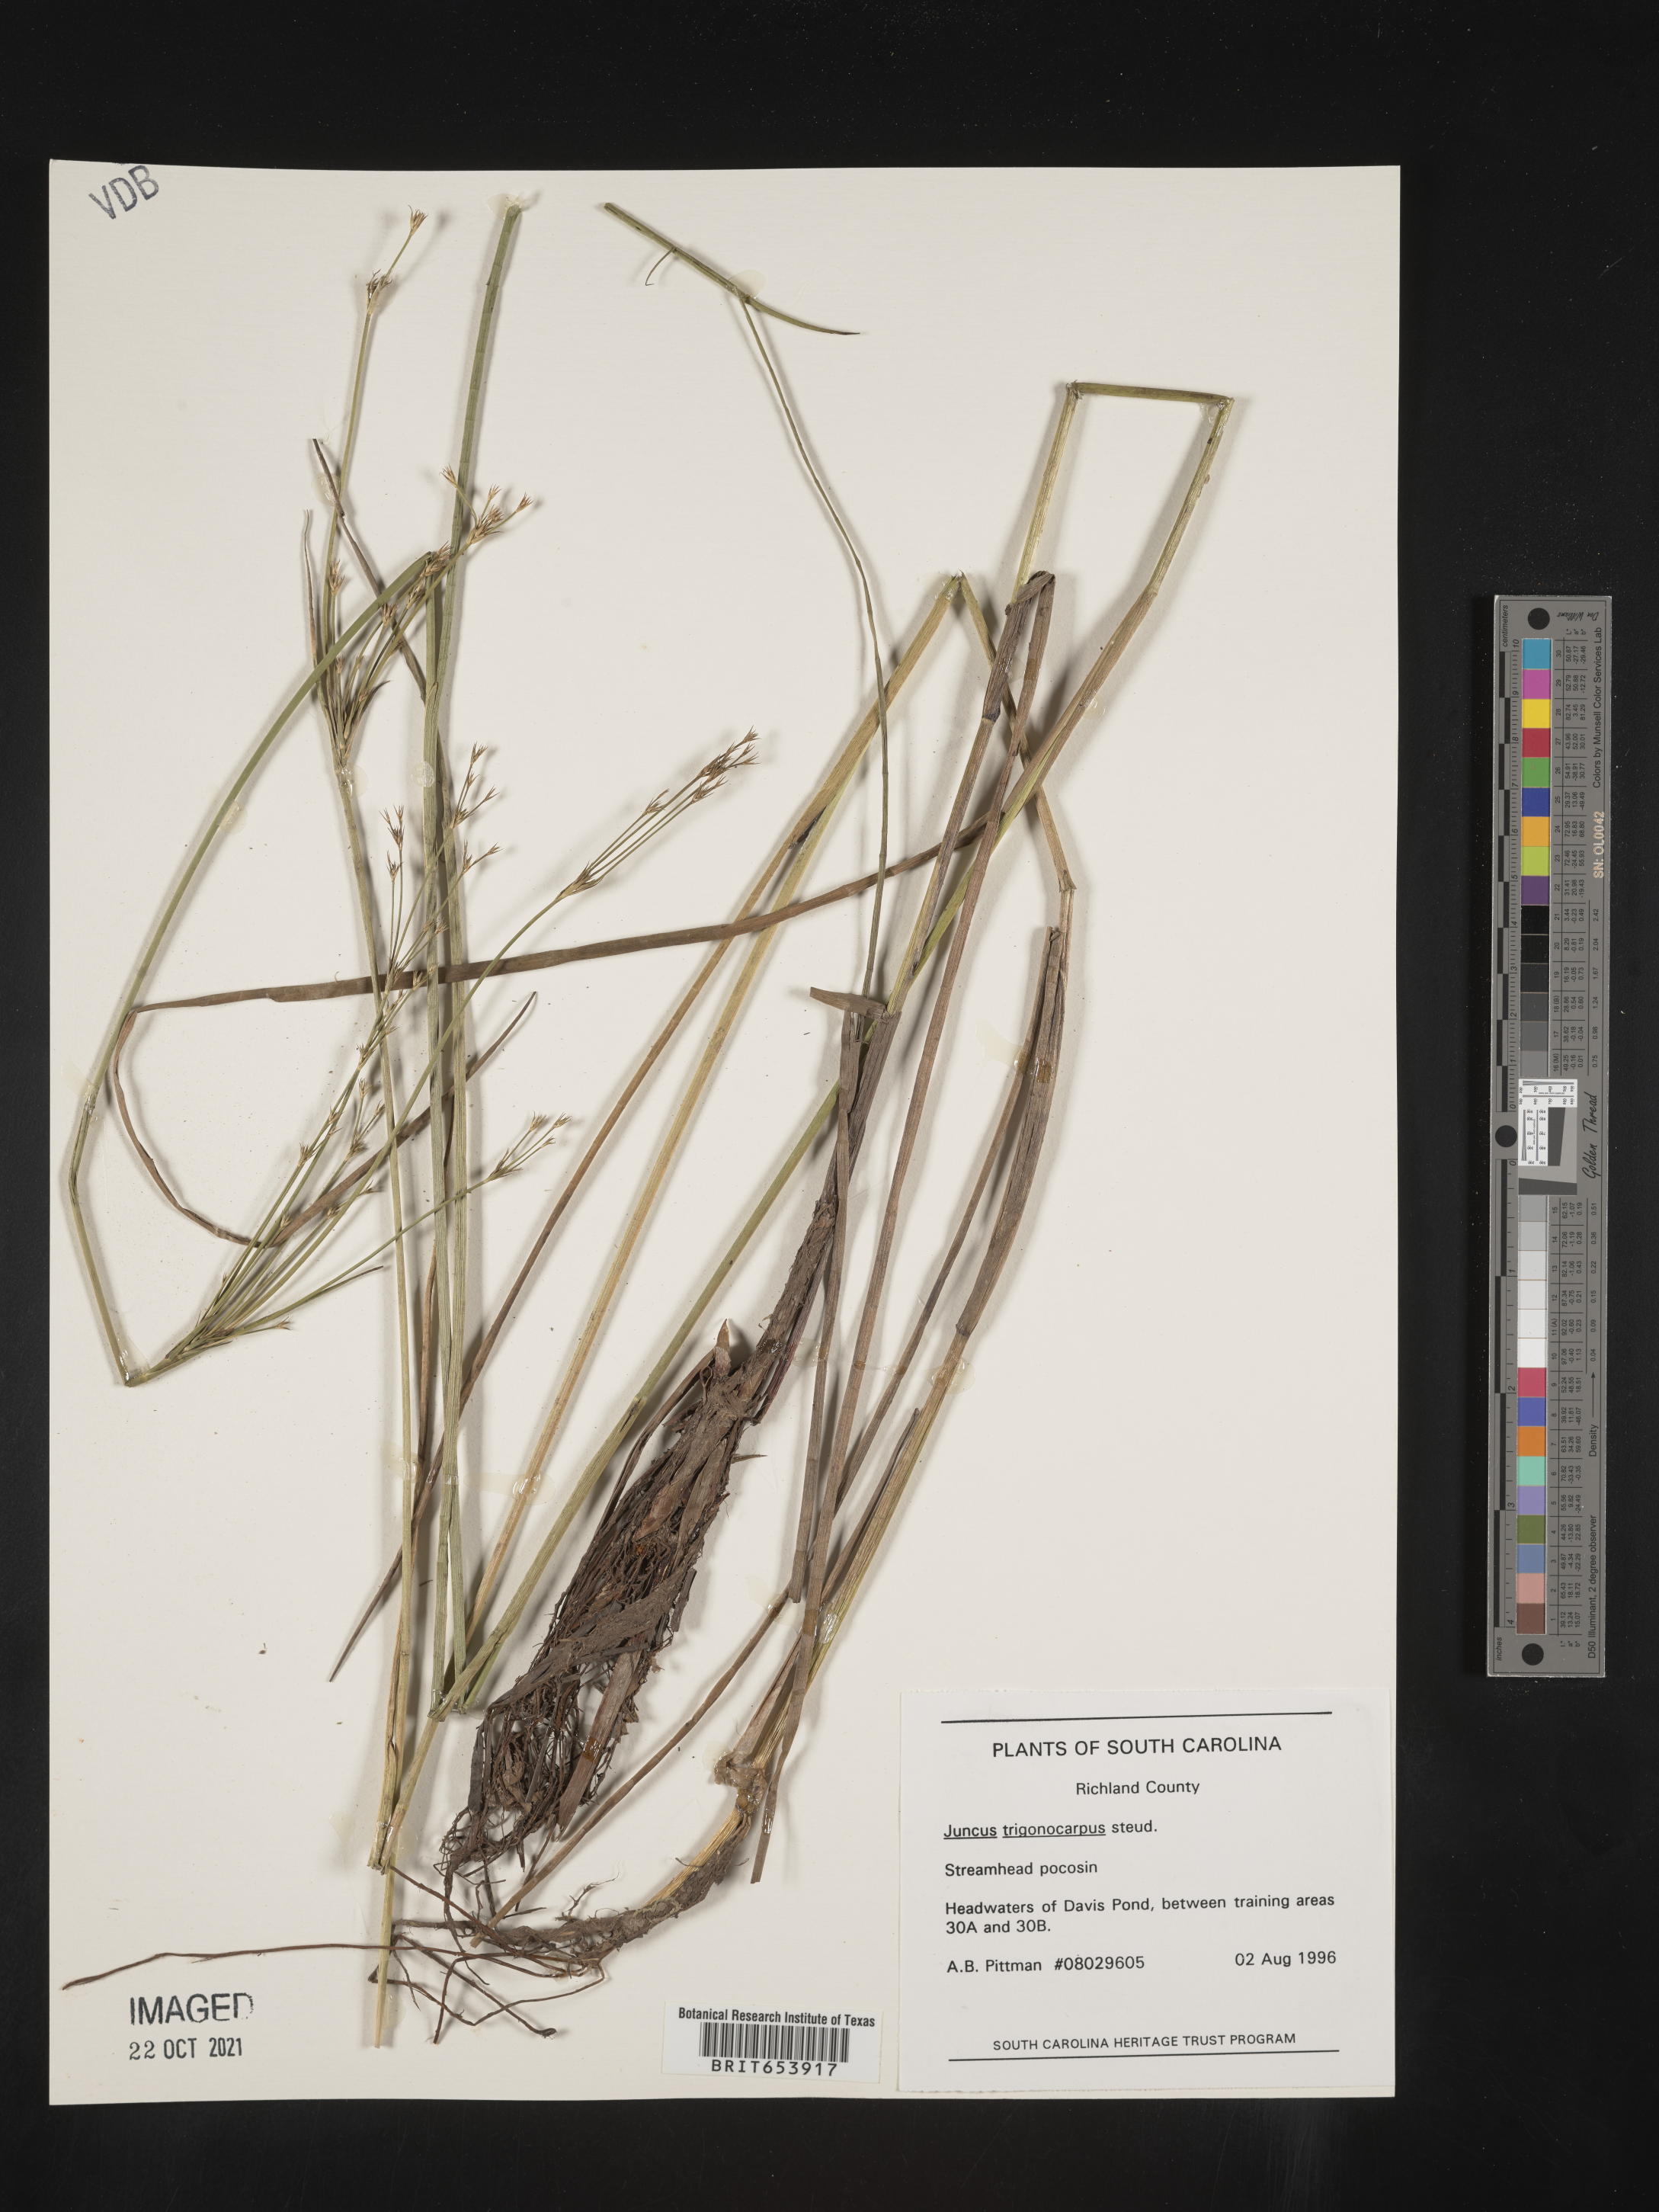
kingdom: Plantae
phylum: Tracheophyta
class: Liliopsida
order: Poales
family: Juncaceae
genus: Juncus
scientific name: Juncus trigonocarpus
